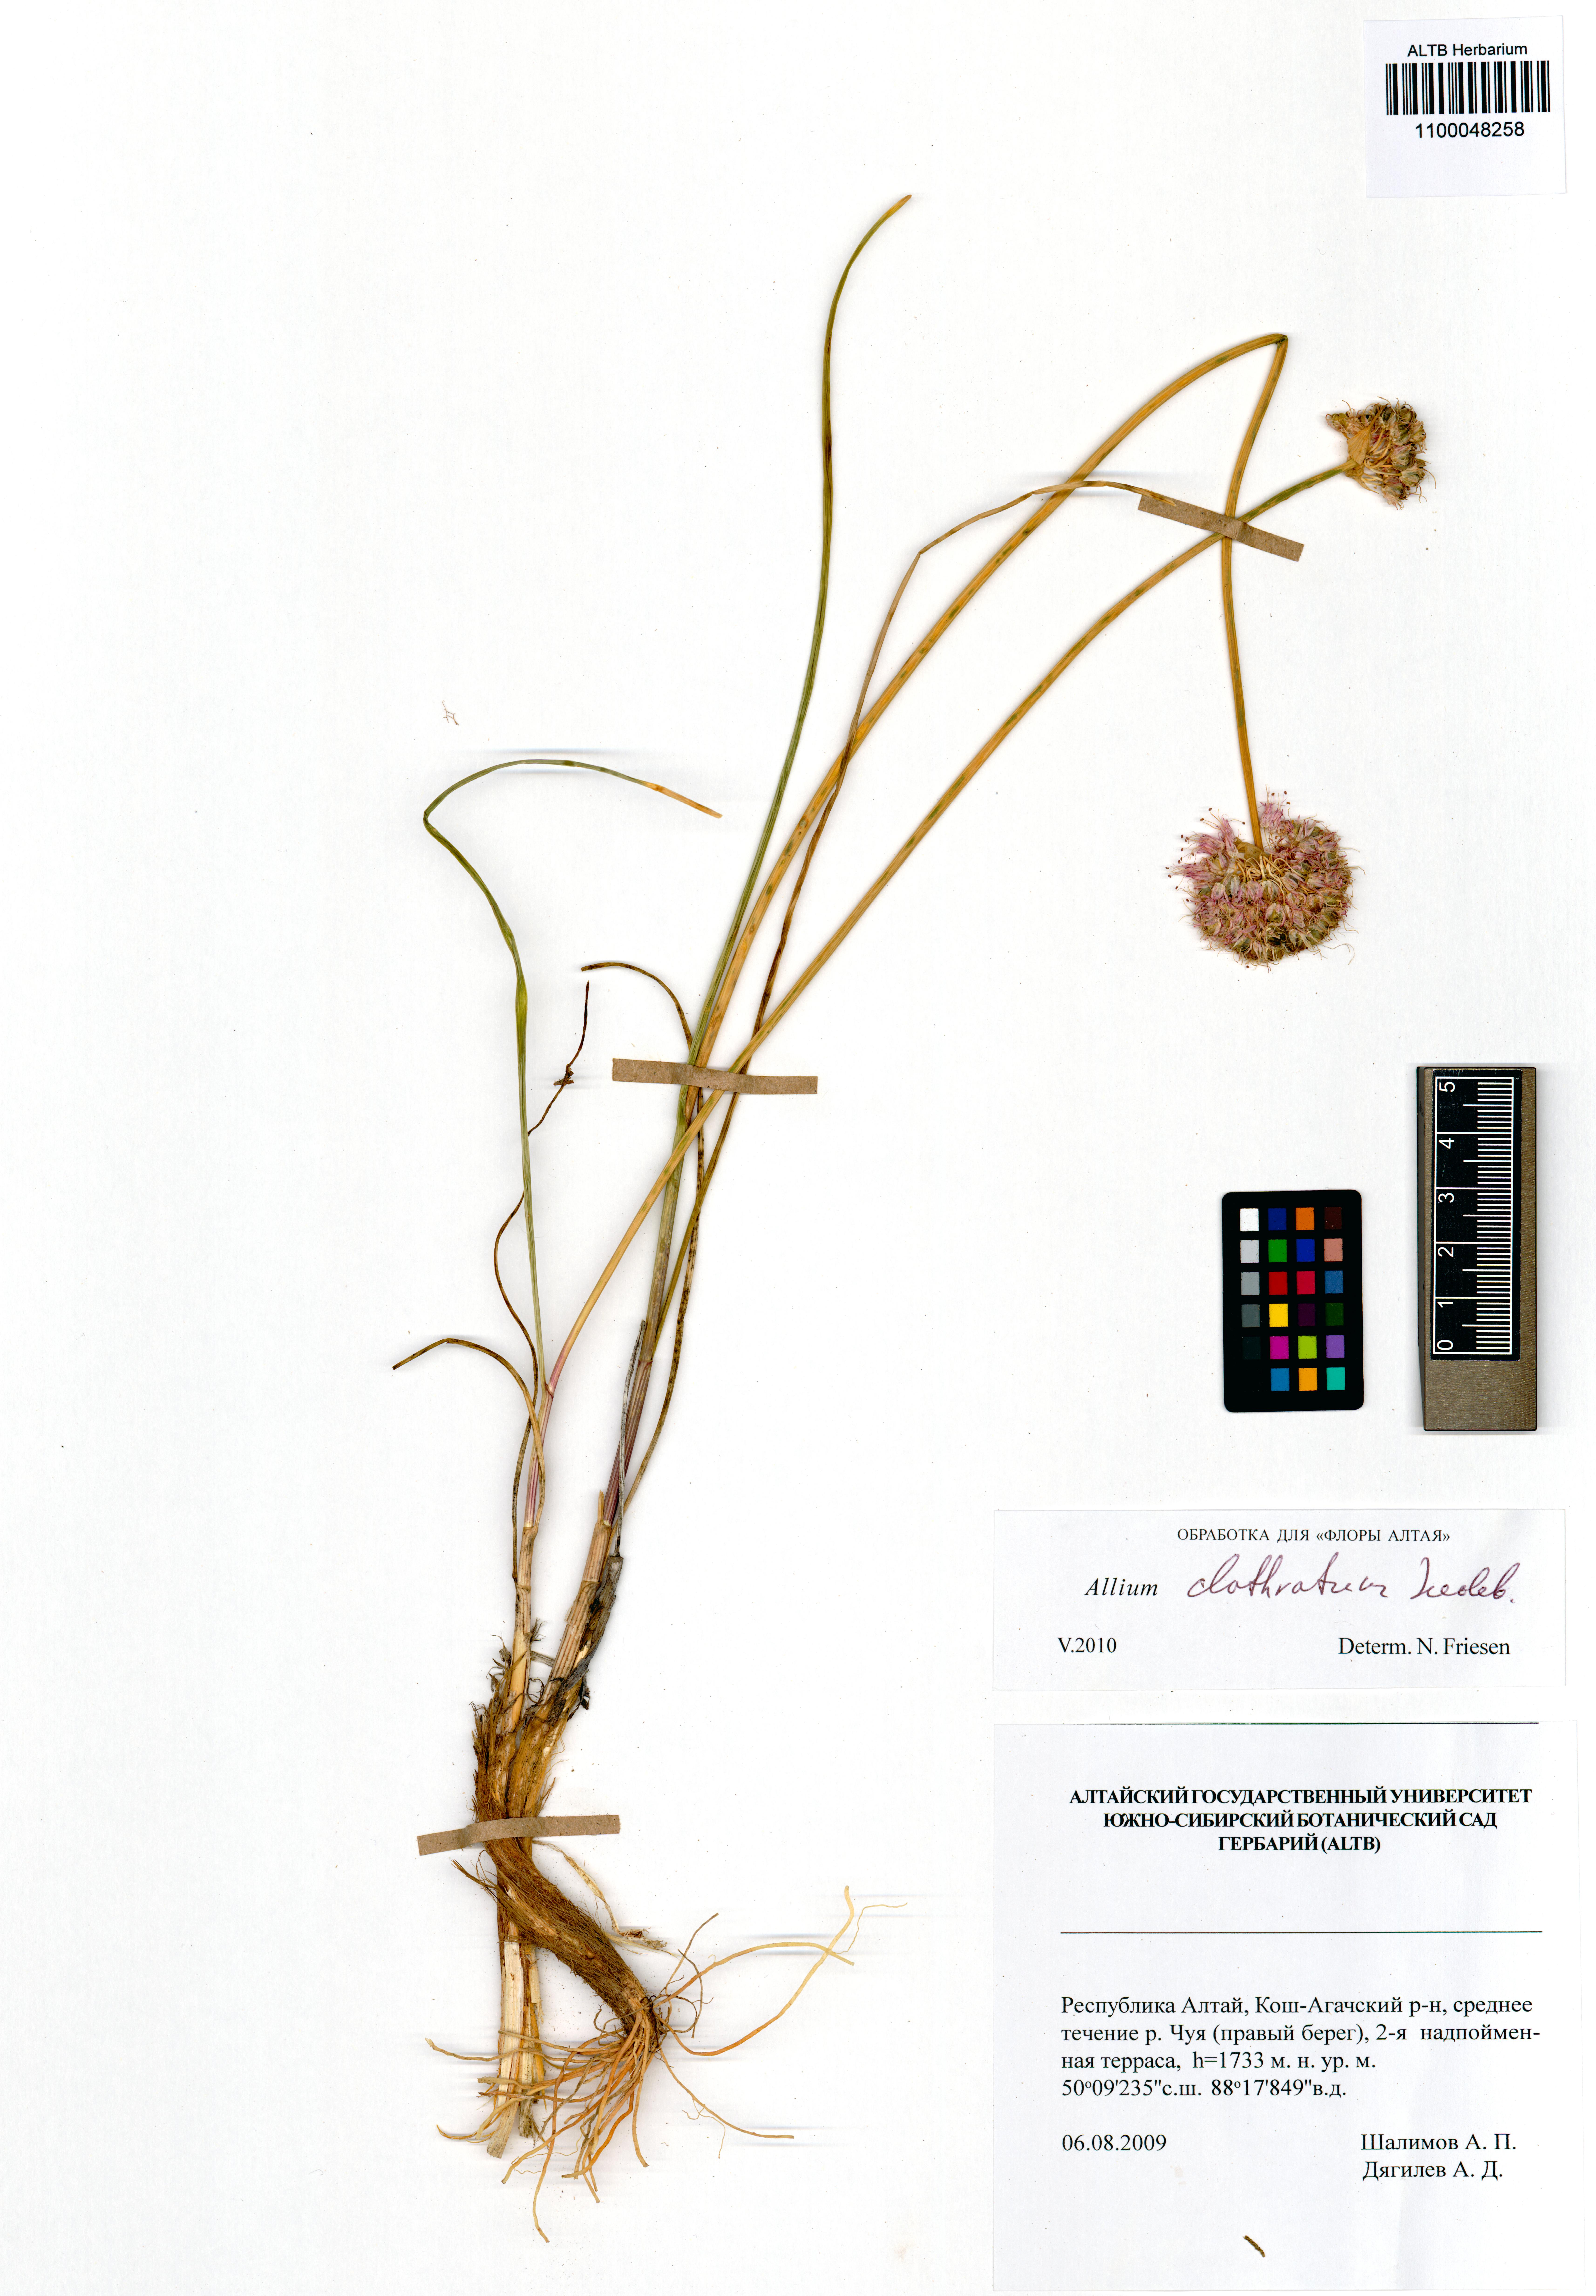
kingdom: Plantae
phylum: Tracheophyta
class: Liliopsida
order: Asparagales
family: Amaryllidaceae
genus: Allium
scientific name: Allium clathratum
